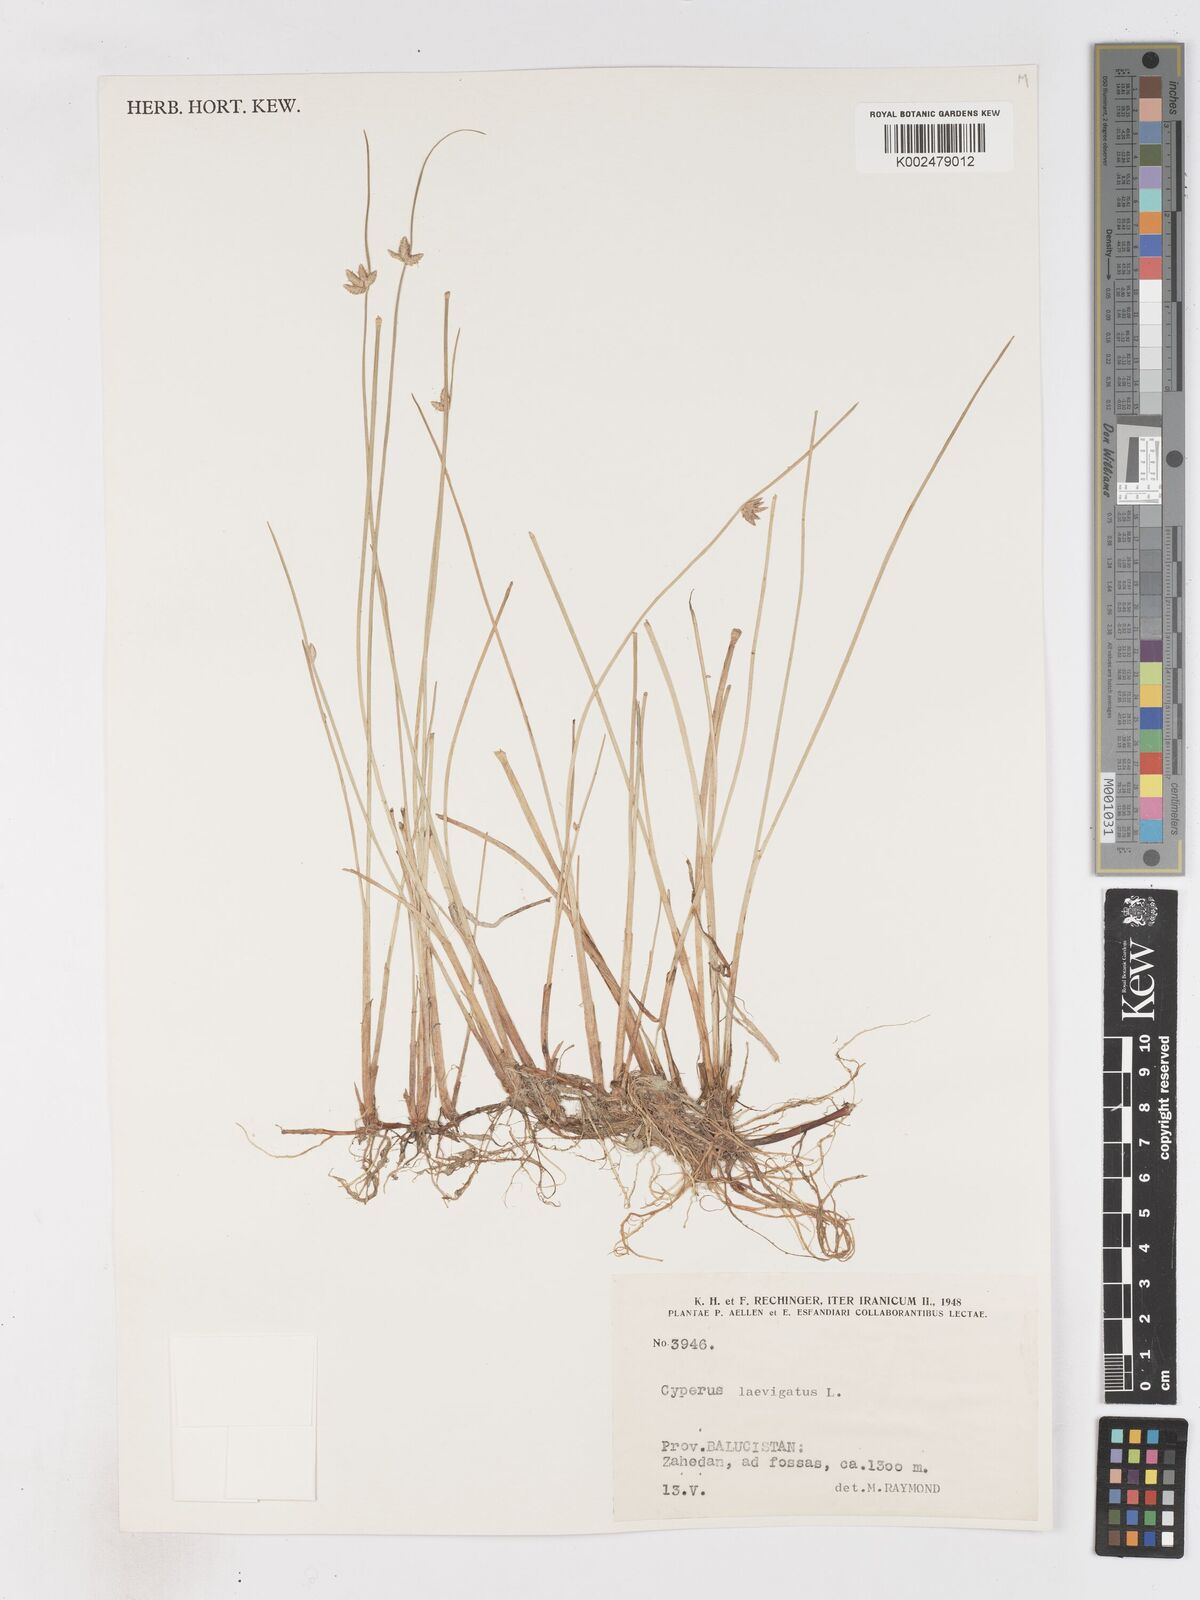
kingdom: Plantae
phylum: Tracheophyta
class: Liliopsida
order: Poales
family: Cyperaceae
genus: Cyperus
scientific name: Cyperus laevigatus
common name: Smooth flat sedge
